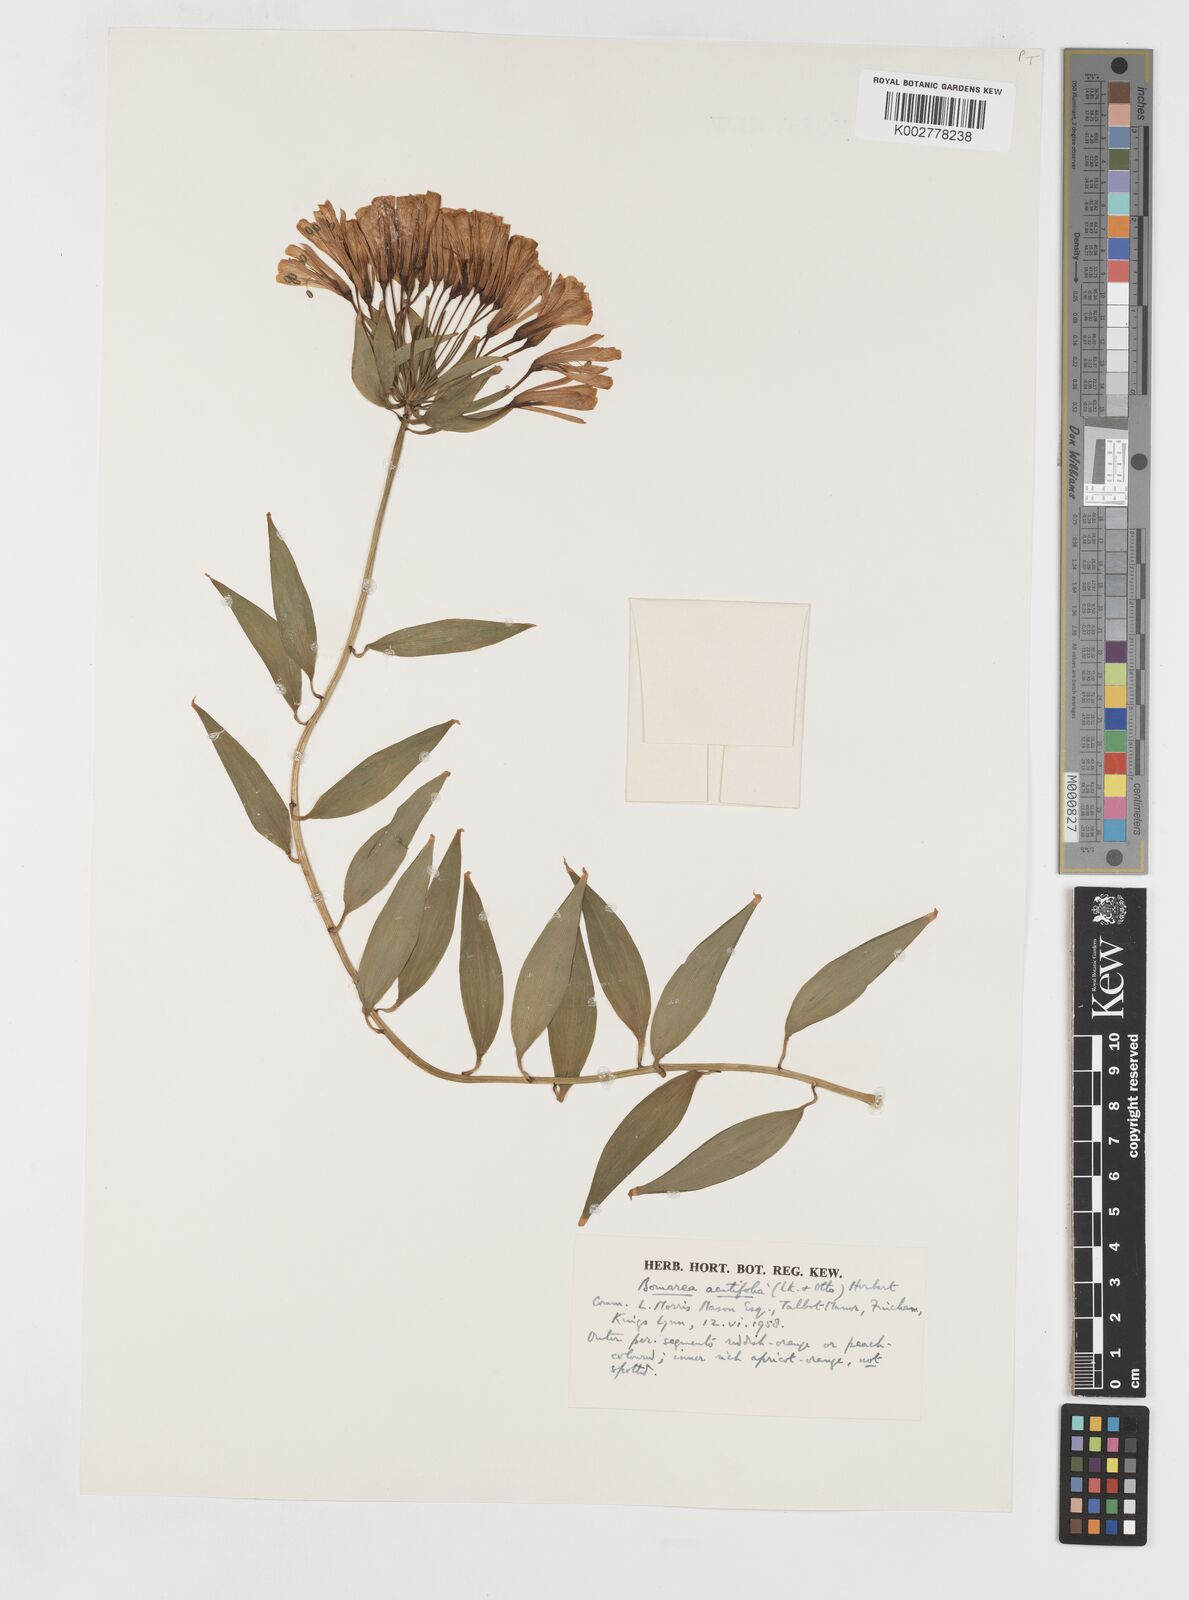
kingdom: Plantae
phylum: Tracheophyta
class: Liliopsida
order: Liliales
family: Alstroemeriaceae
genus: Bomarea
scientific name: Bomarea acutifolia
